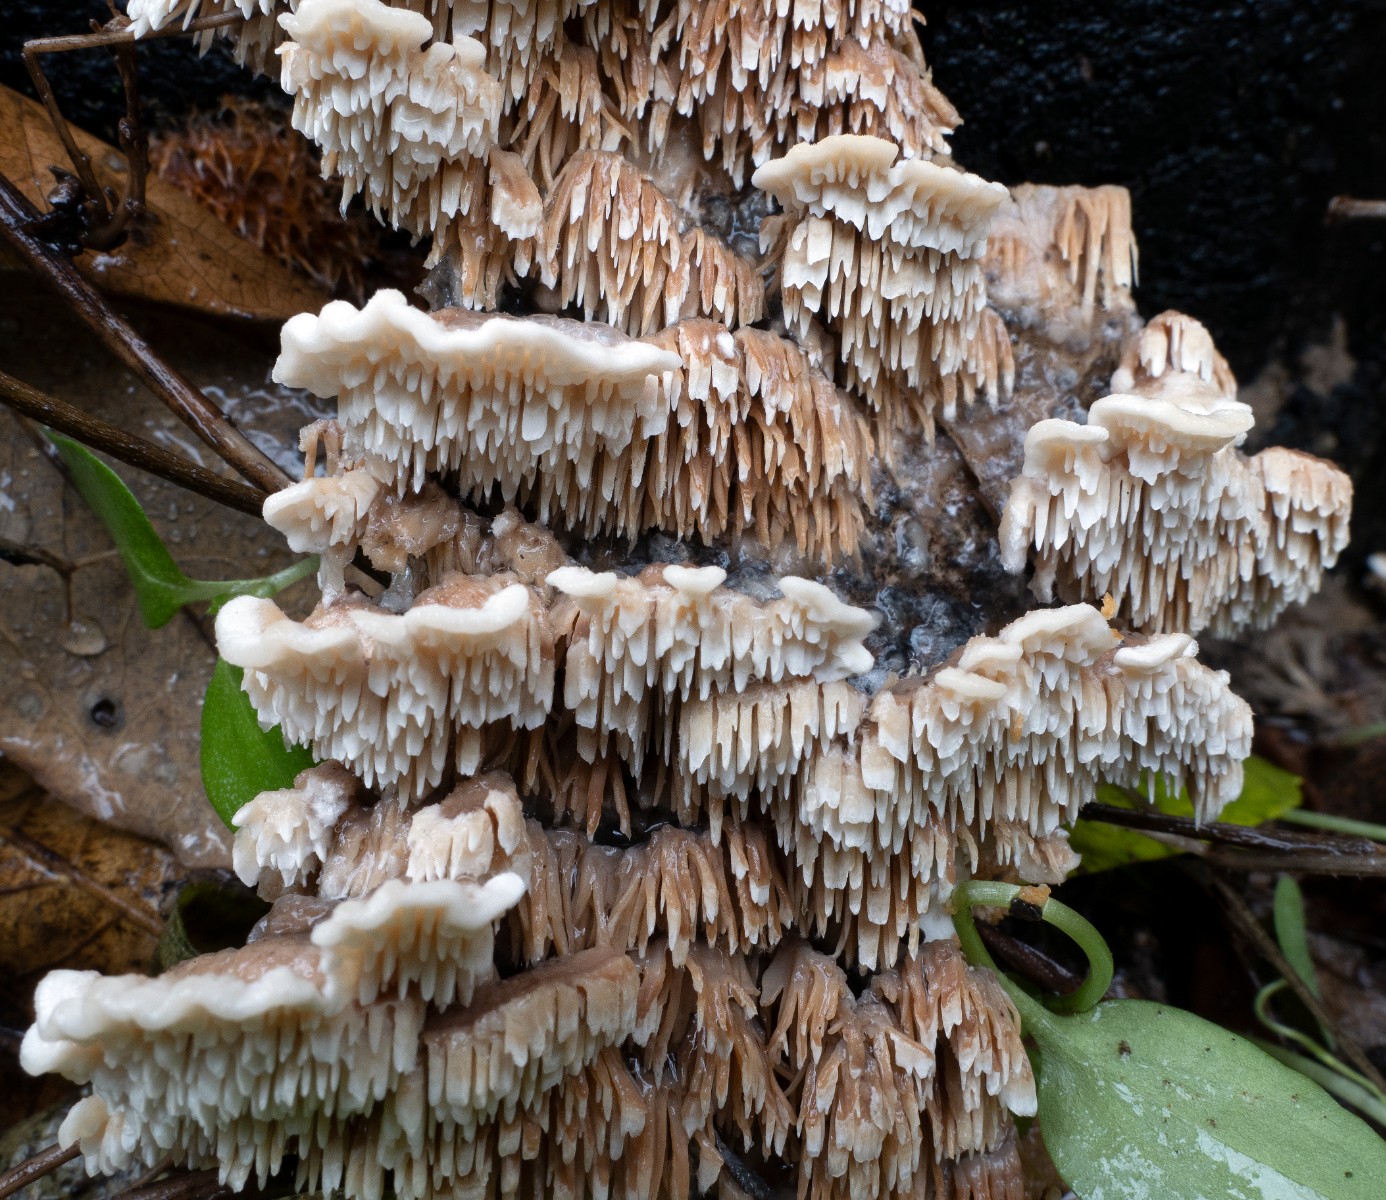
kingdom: Fungi
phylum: Basidiomycota
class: Agaricomycetes
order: Polyporales
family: Irpicaceae
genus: Irpex
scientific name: Irpex lacteus
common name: stor tandhat
